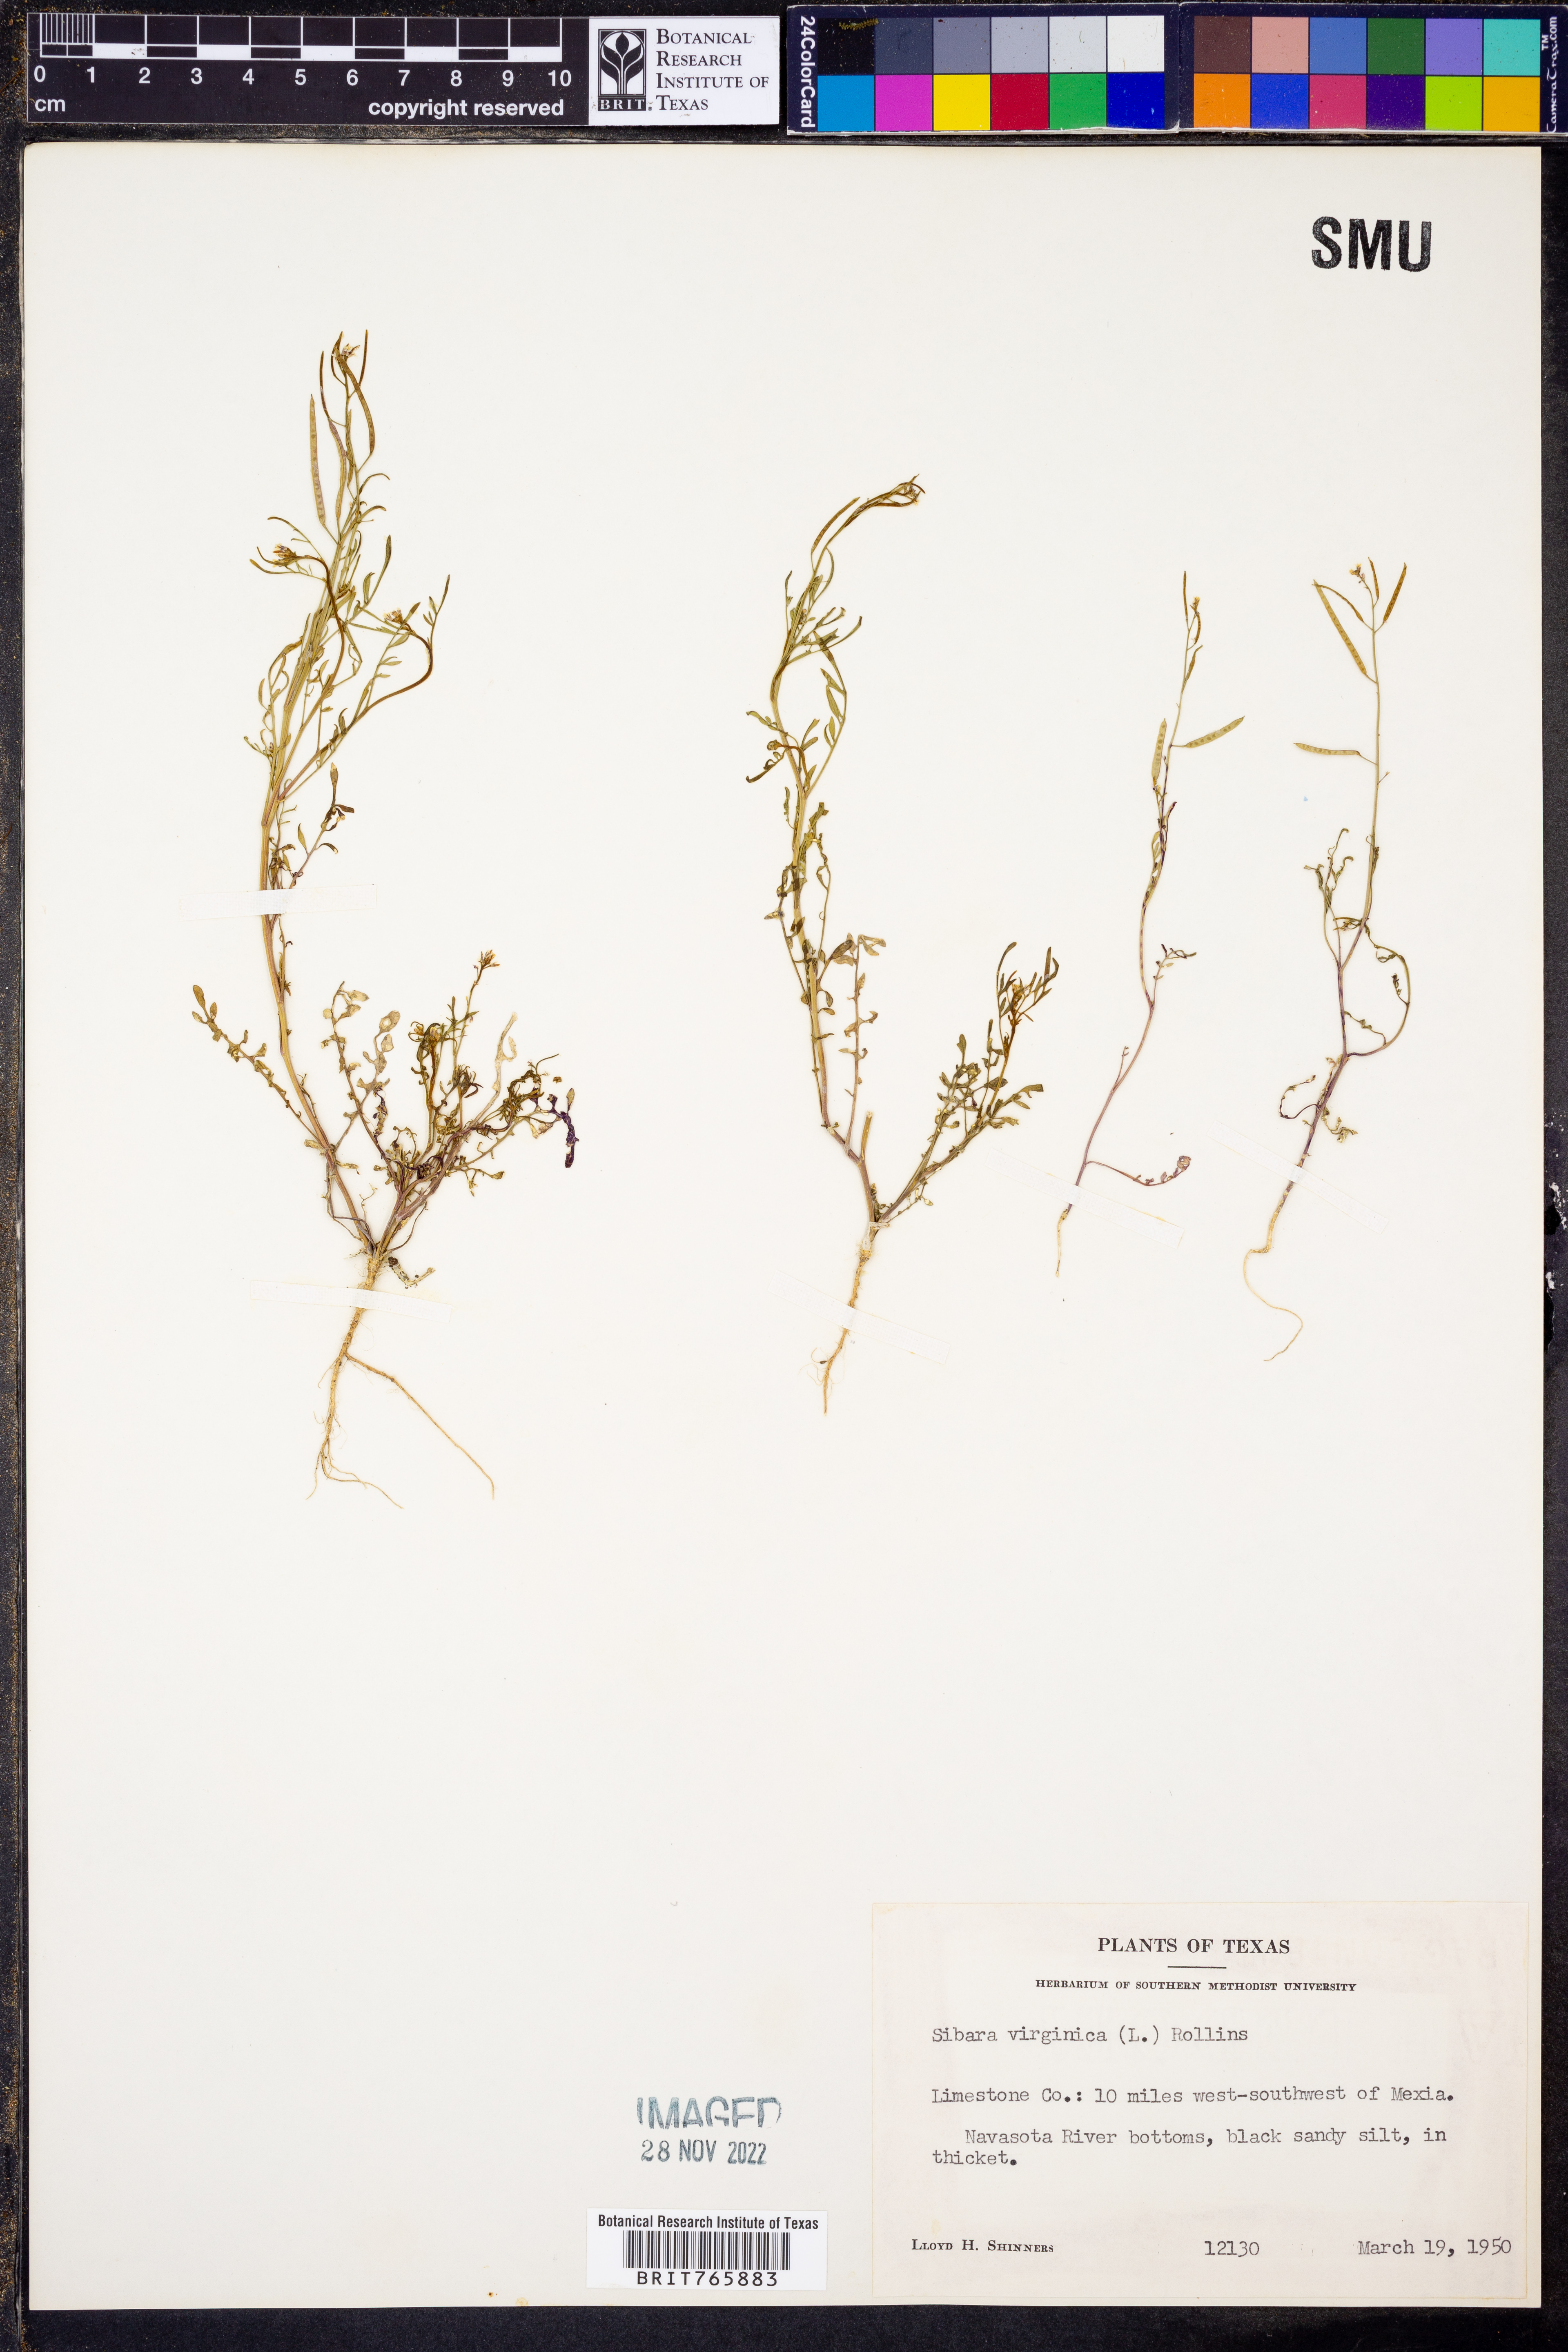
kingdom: Plantae
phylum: Tracheophyta
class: Magnoliopsida
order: Brassicales
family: Brassicaceae
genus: Planodes
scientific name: Planodes virginicum
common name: Virginia cress
